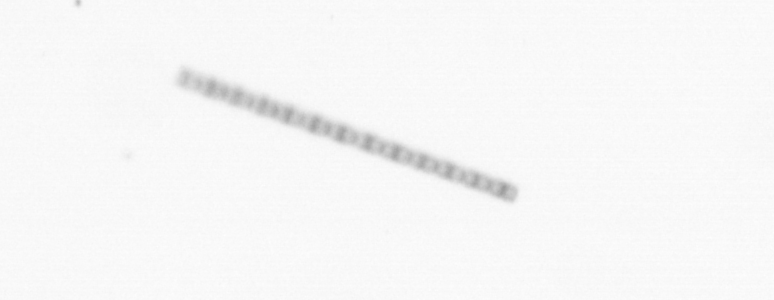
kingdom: Chromista
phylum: Ochrophyta
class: Bacillariophyceae
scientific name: Bacillariophyceae
